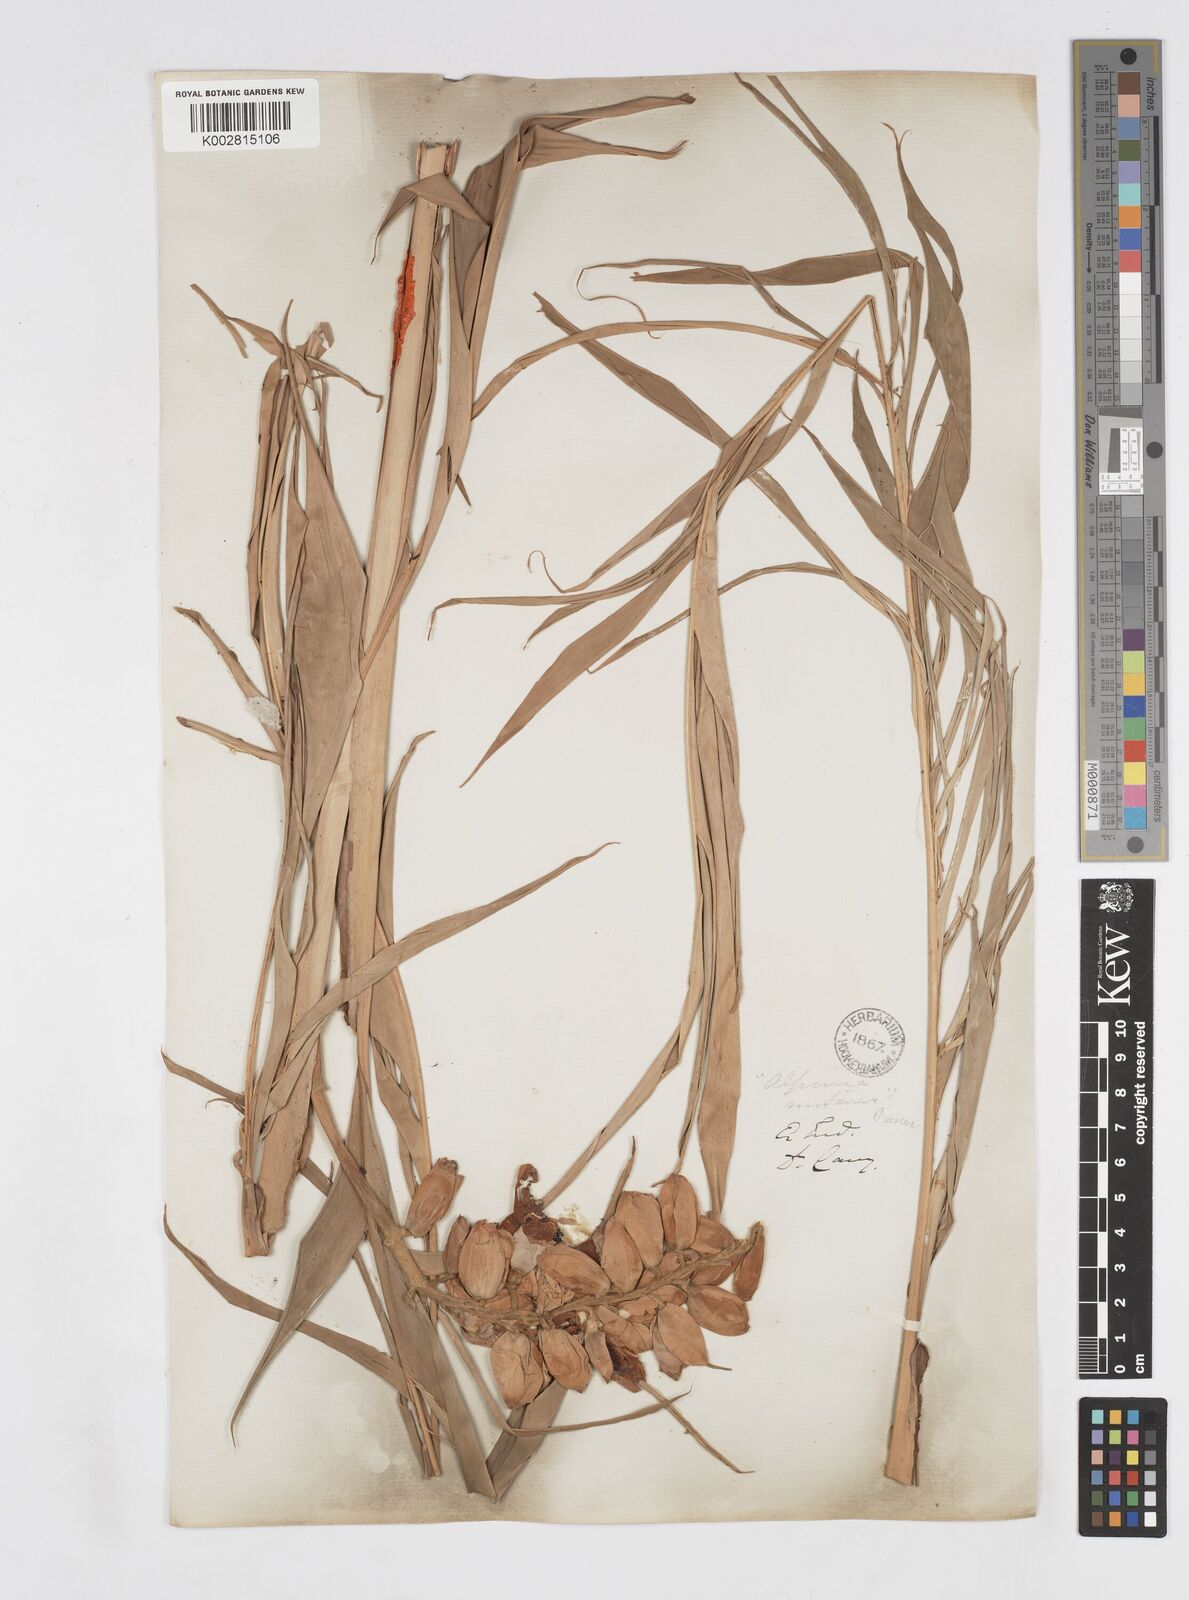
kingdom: Plantae
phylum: Tracheophyta
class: Liliopsida
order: Zingiberales
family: Zingiberaceae
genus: Alpinia
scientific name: Alpinia zerumbet
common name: Shellplant
